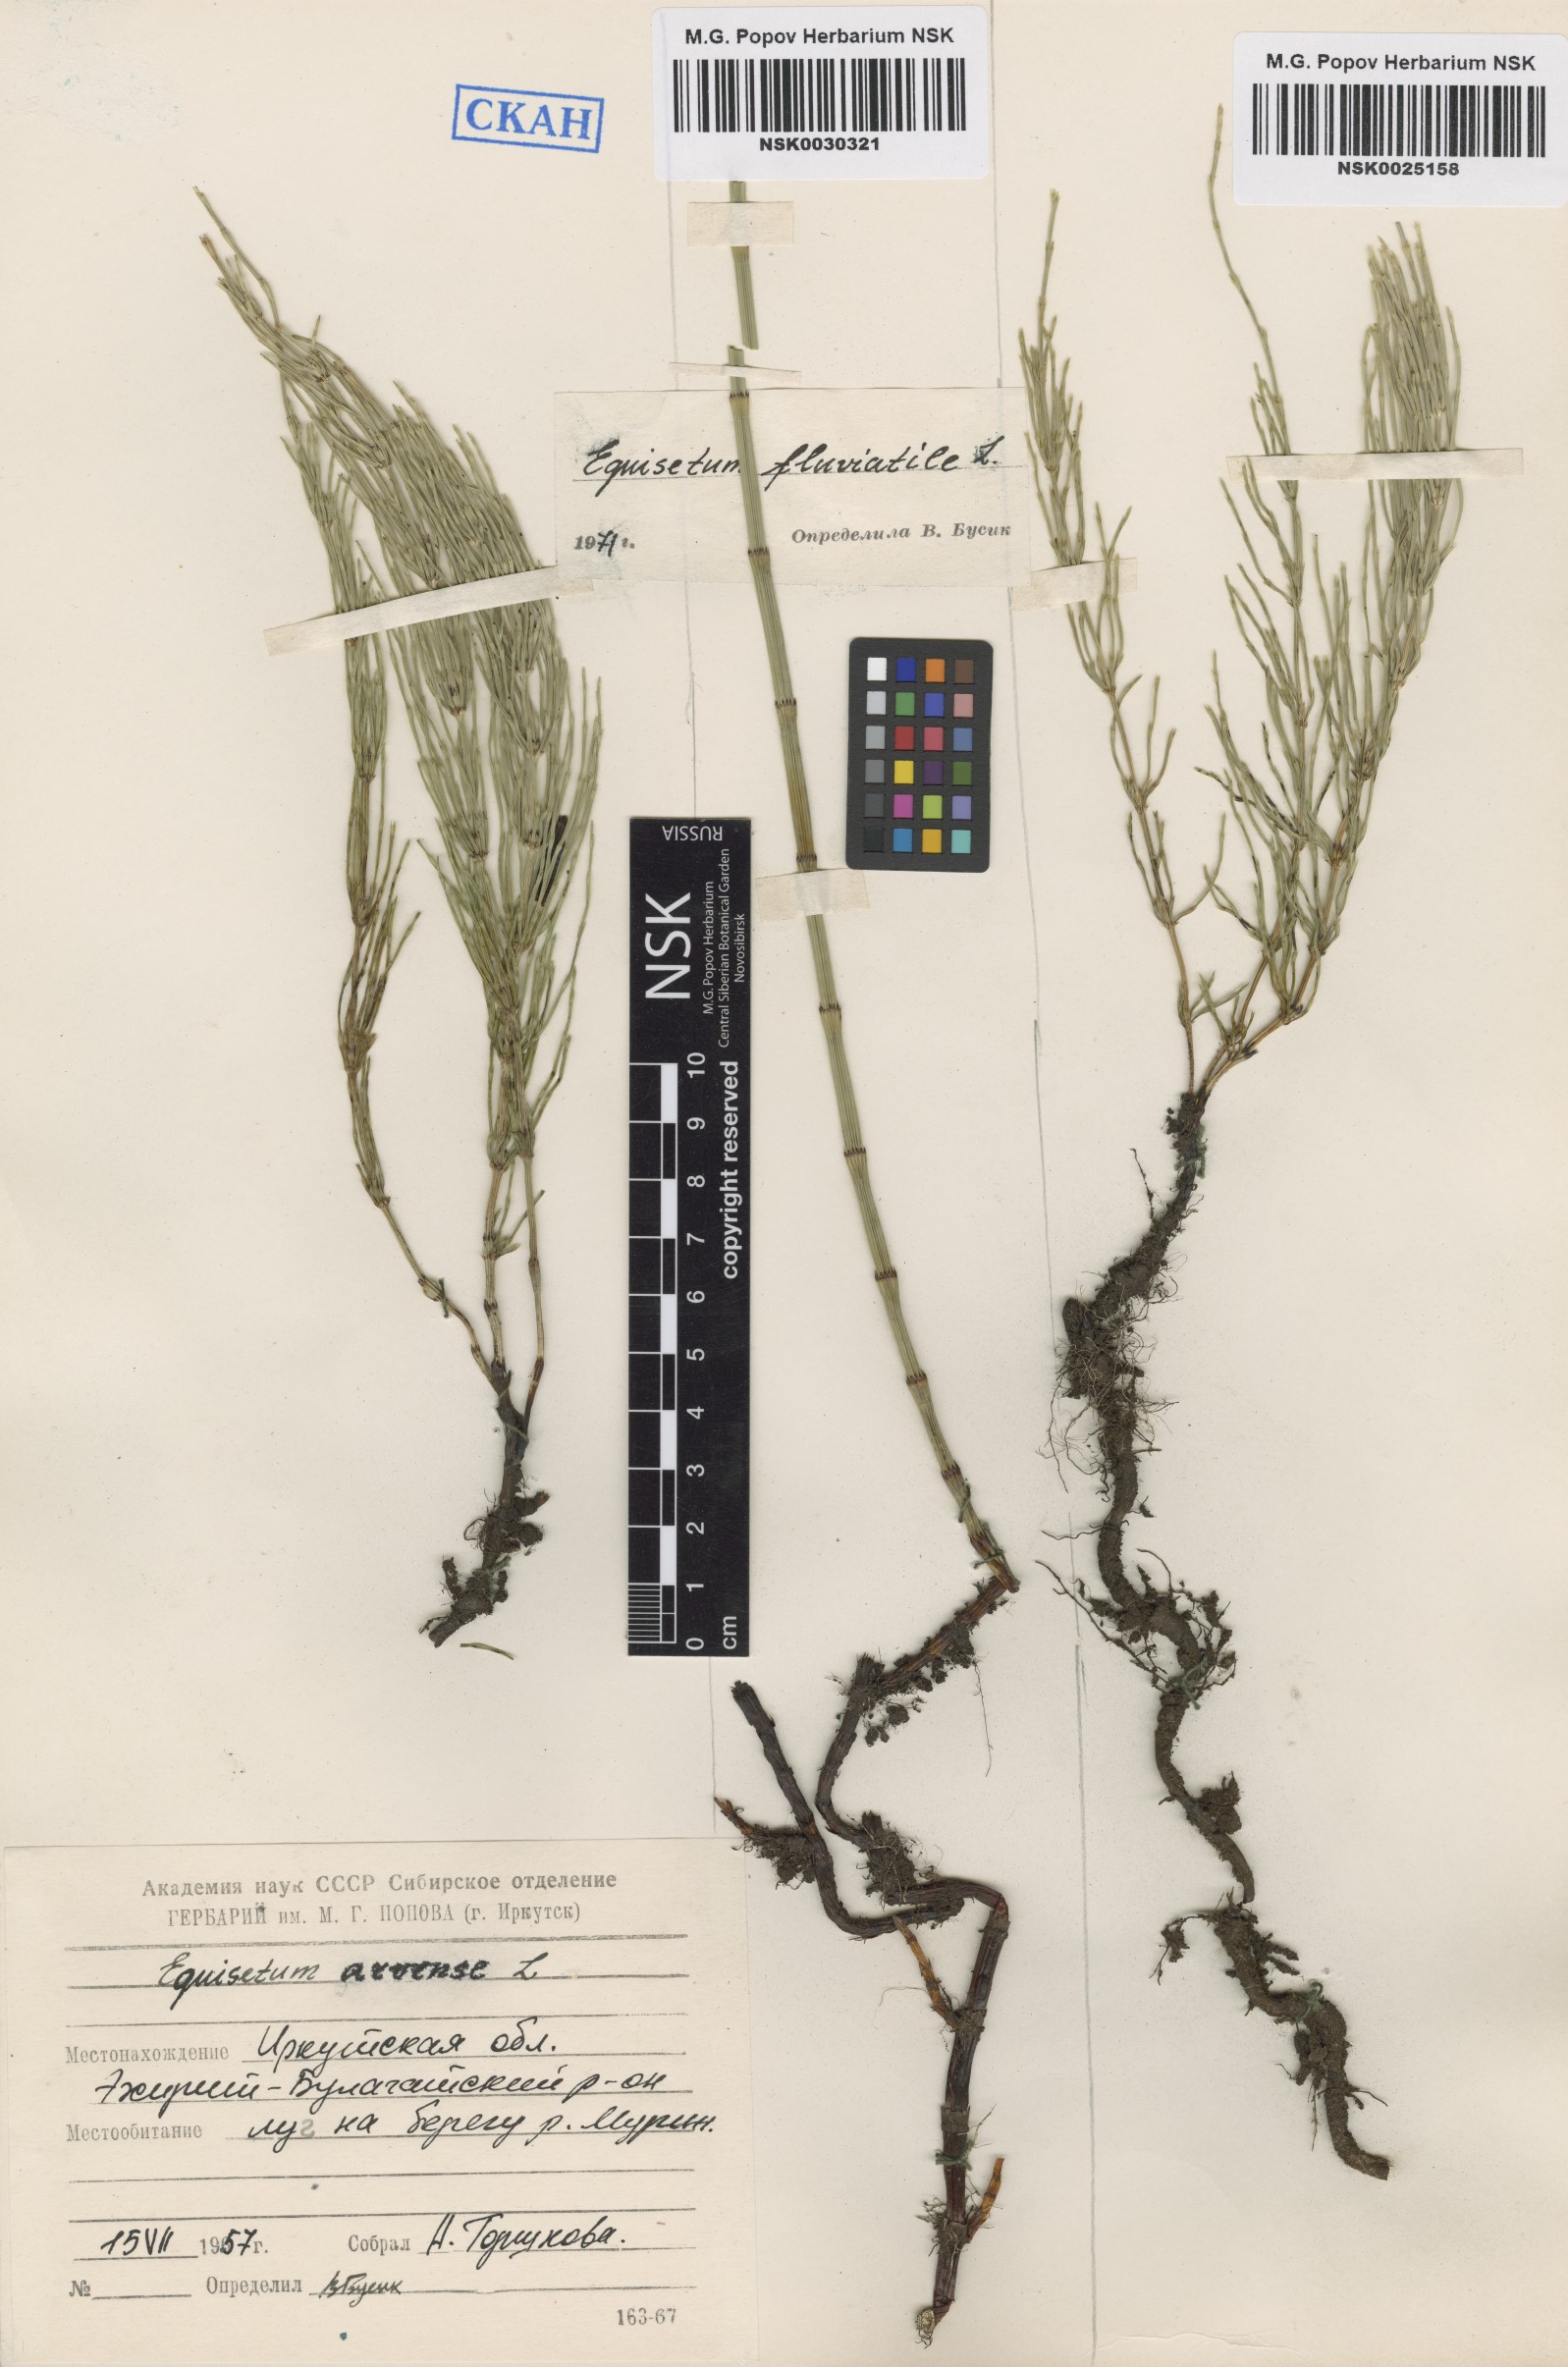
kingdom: Plantae
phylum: Tracheophyta
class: Polypodiopsida
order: Equisetales
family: Equisetaceae
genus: Equisetum
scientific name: Equisetum fluviatile
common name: Water horsetail
